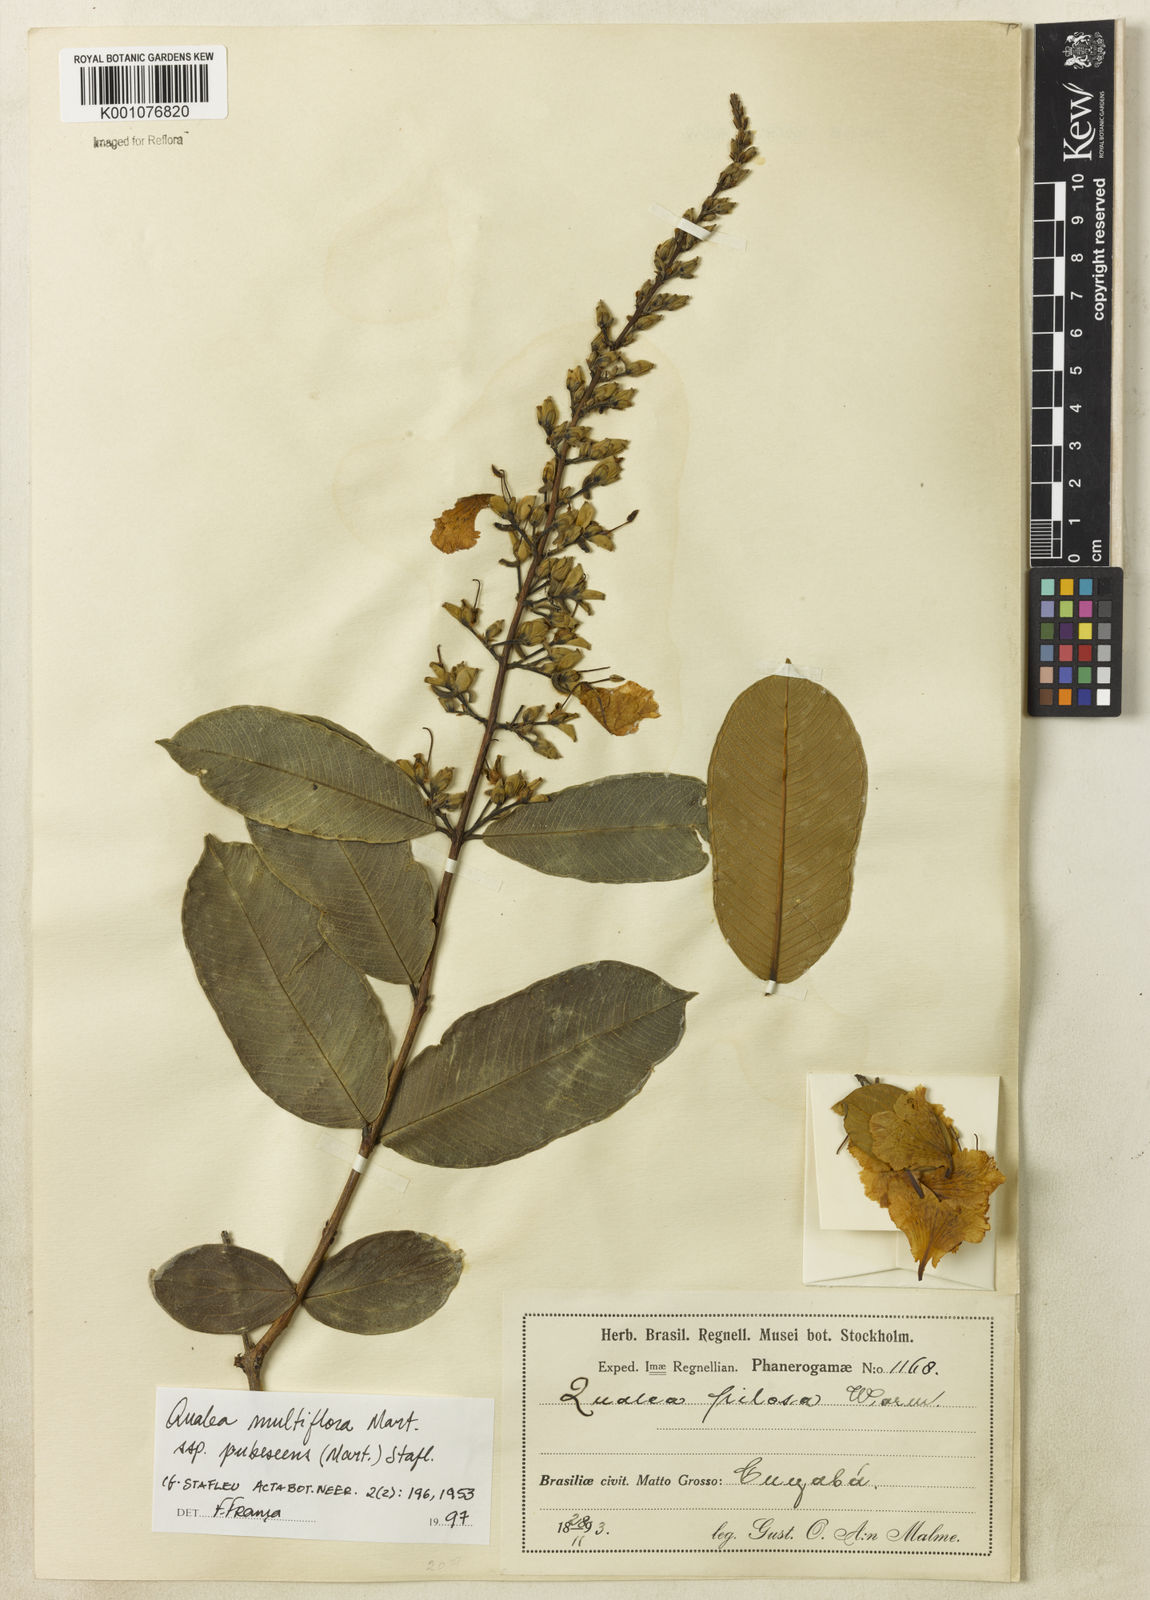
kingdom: Plantae
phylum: Tracheophyta
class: Magnoliopsida
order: Myrtales
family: Vochysiaceae
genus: Qualea
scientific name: Qualea multiflora
